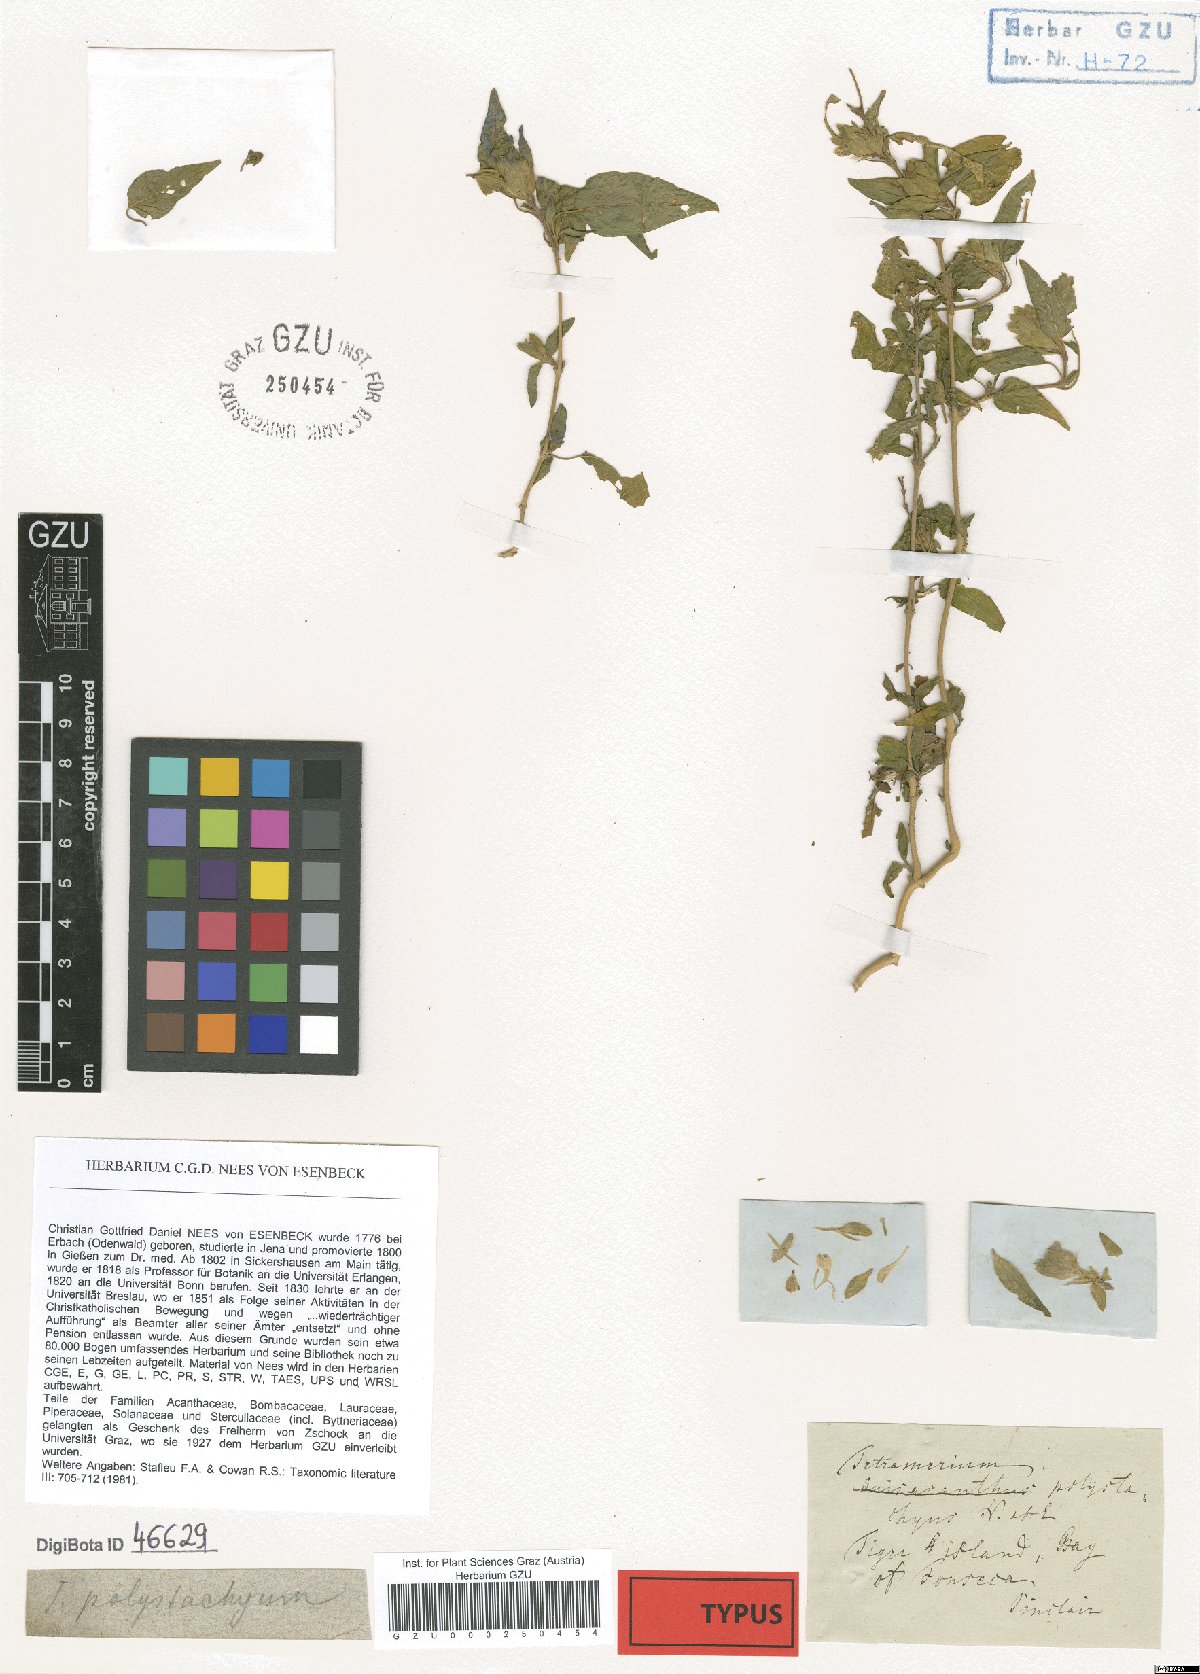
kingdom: Plantae
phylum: Tracheophyta
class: Magnoliopsida
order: Lamiales
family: Acanthaceae
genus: Tetramerium
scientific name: Tetramerium nervosum
